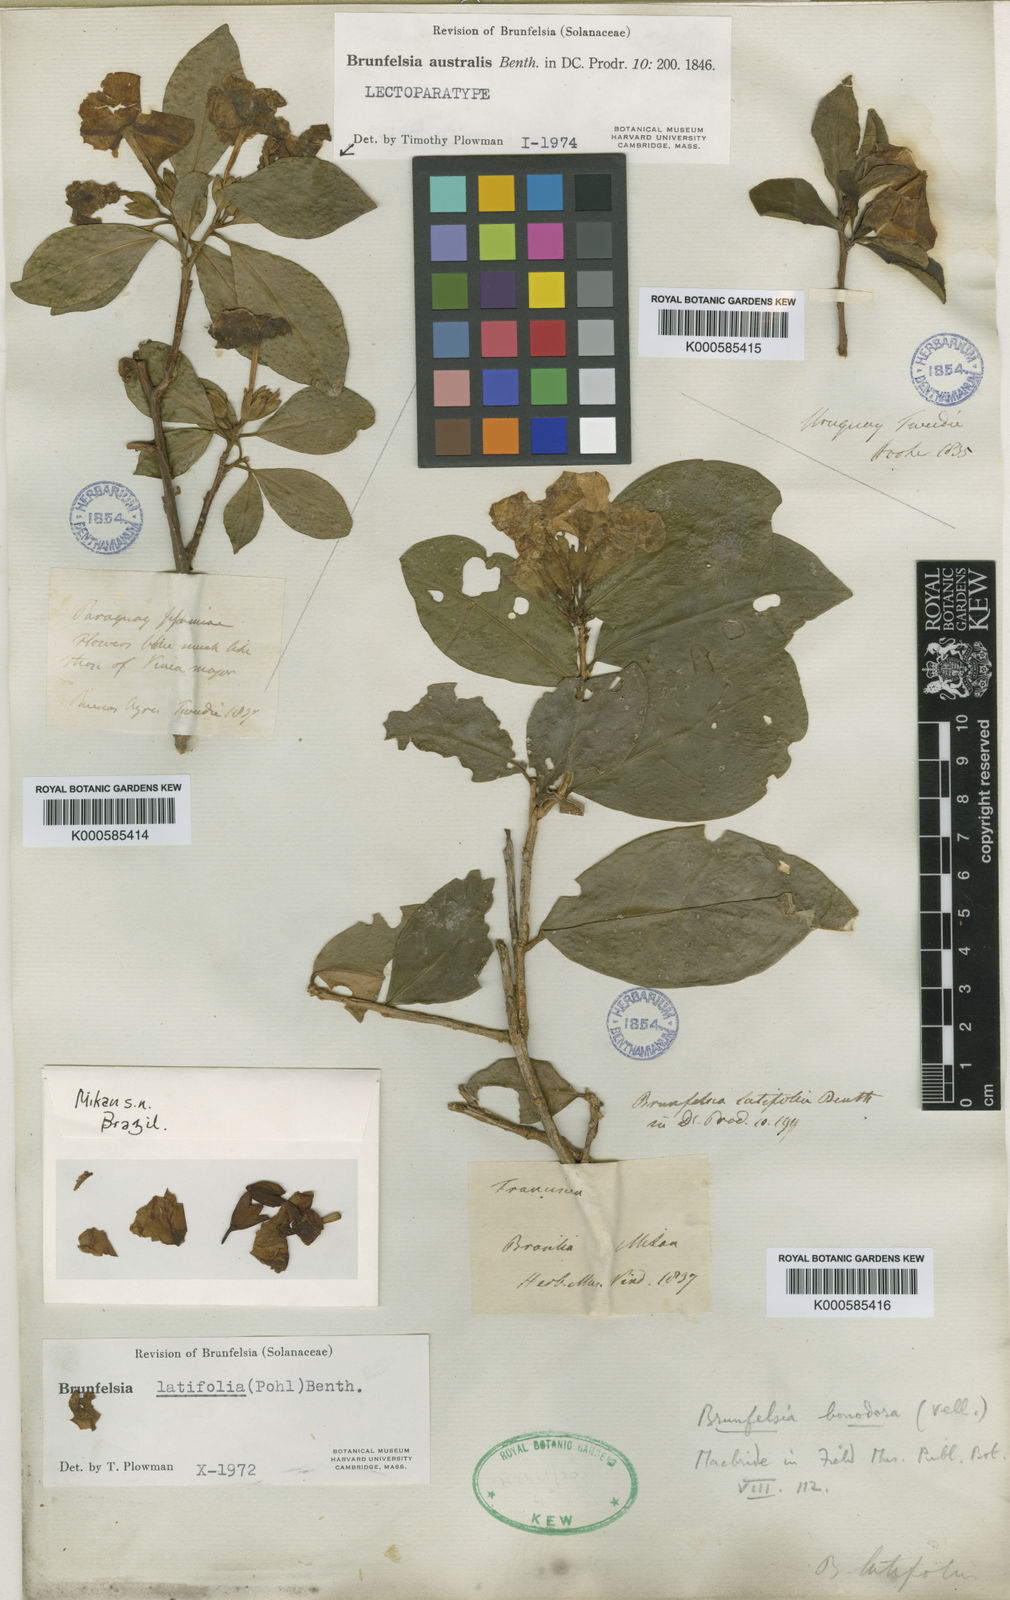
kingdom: Plantae
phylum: Tracheophyta
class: Magnoliopsida
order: Solanales
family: Solanaceae
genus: Brunfelsia
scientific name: Brunfelsia australis
